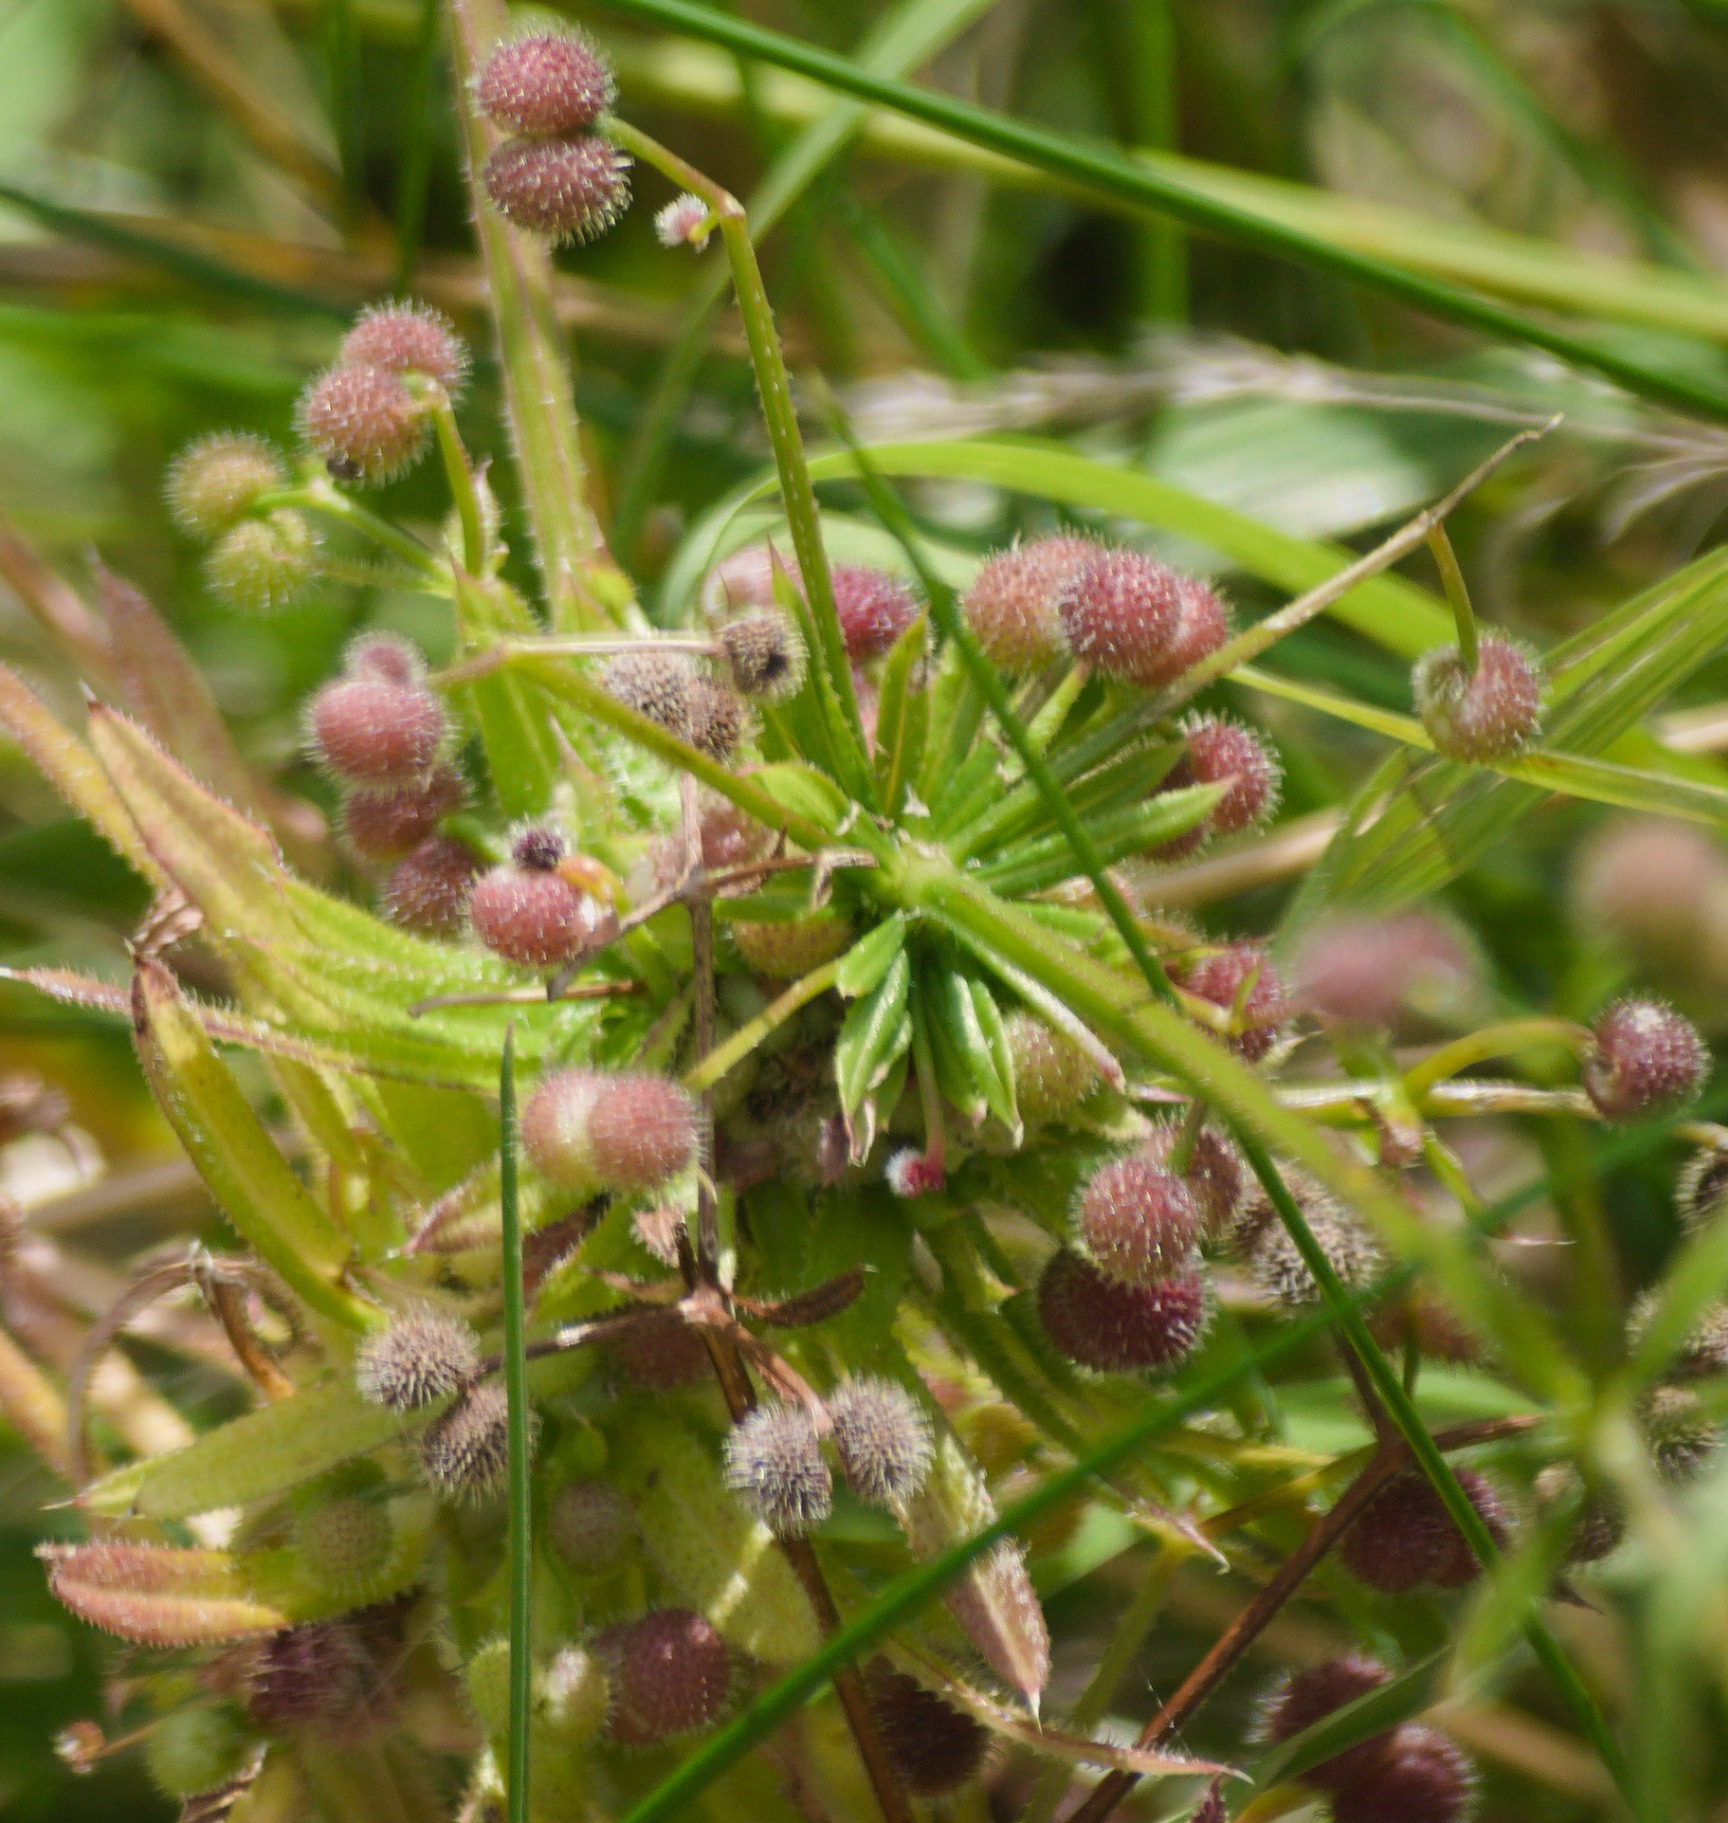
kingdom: Plantae
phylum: Tracheophyta
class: Magnoliopsida
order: Gentianales
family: Rubiaceae
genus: Galium
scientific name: Galium aparine
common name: Burre-snerre
